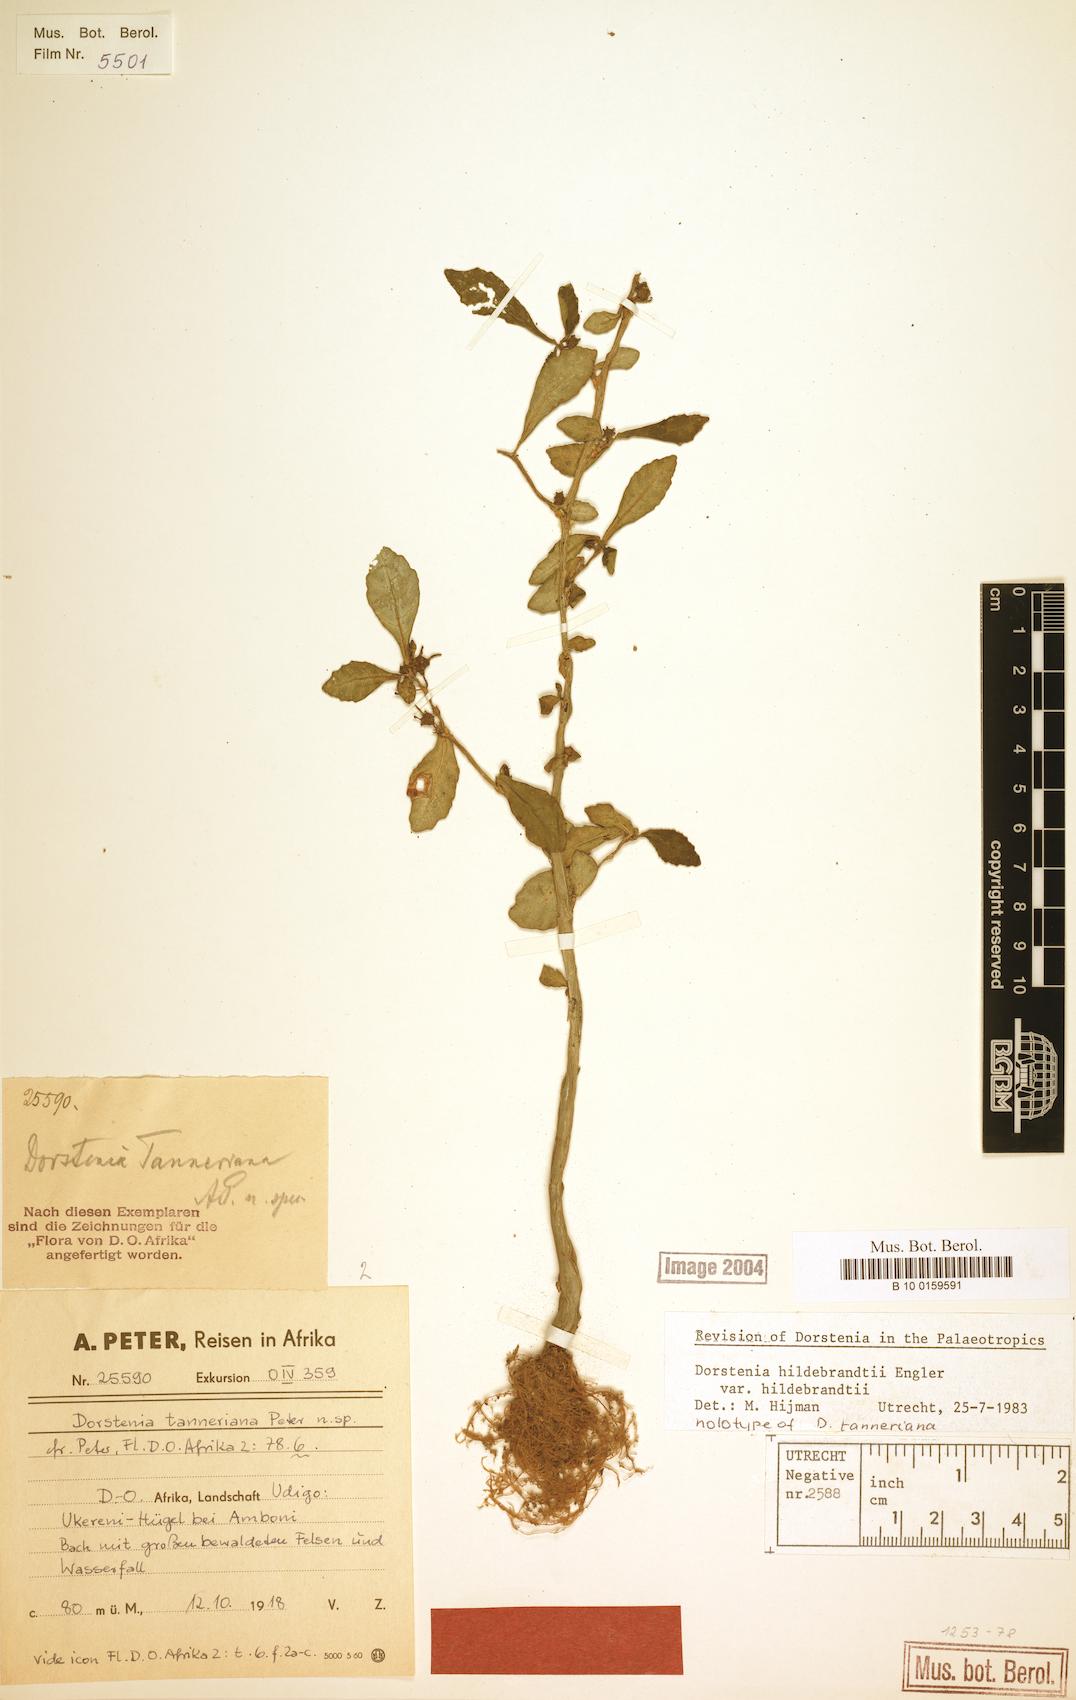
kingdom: Plantae
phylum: Tracheophyta
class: Magnoliopsida
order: Rosales
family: Moraceae
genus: Dorstenia
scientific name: Dorstenia hildebrandtii
